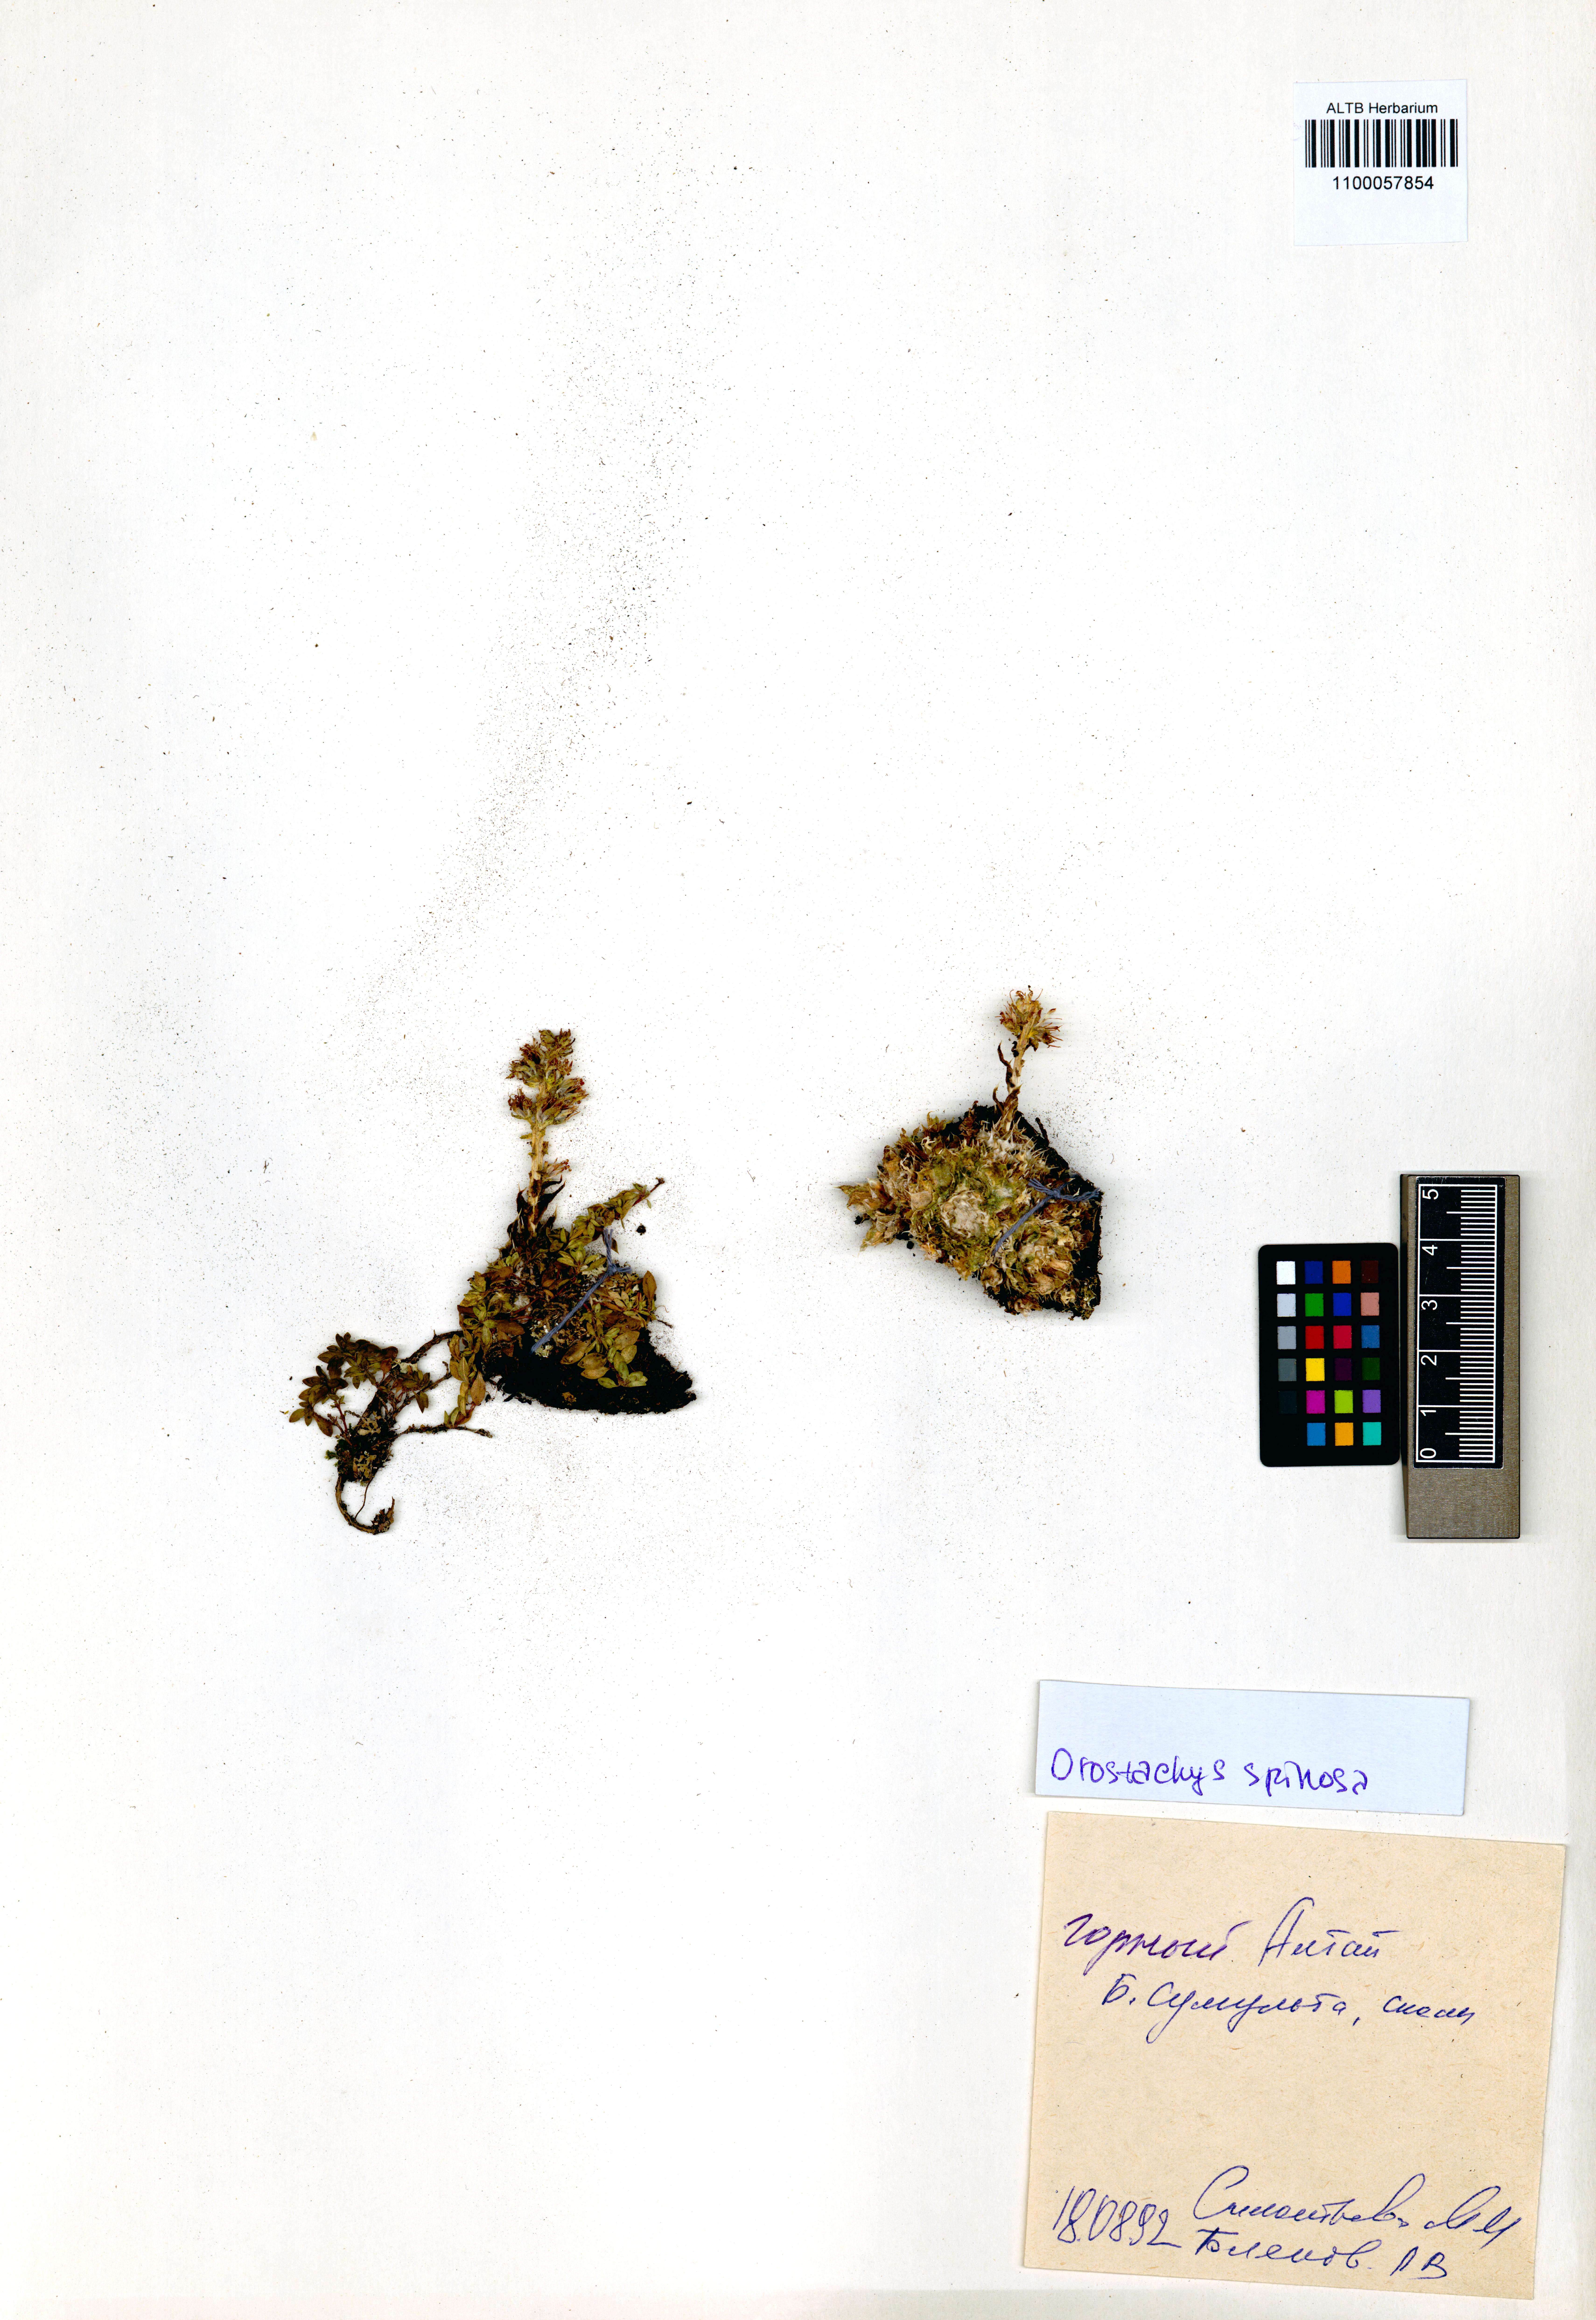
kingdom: Plantae
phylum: Tracheophyta
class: Magnoliopsida
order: Saxifragales
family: Crassulaceae
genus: Orostachys
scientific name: Orostachys spinosa
